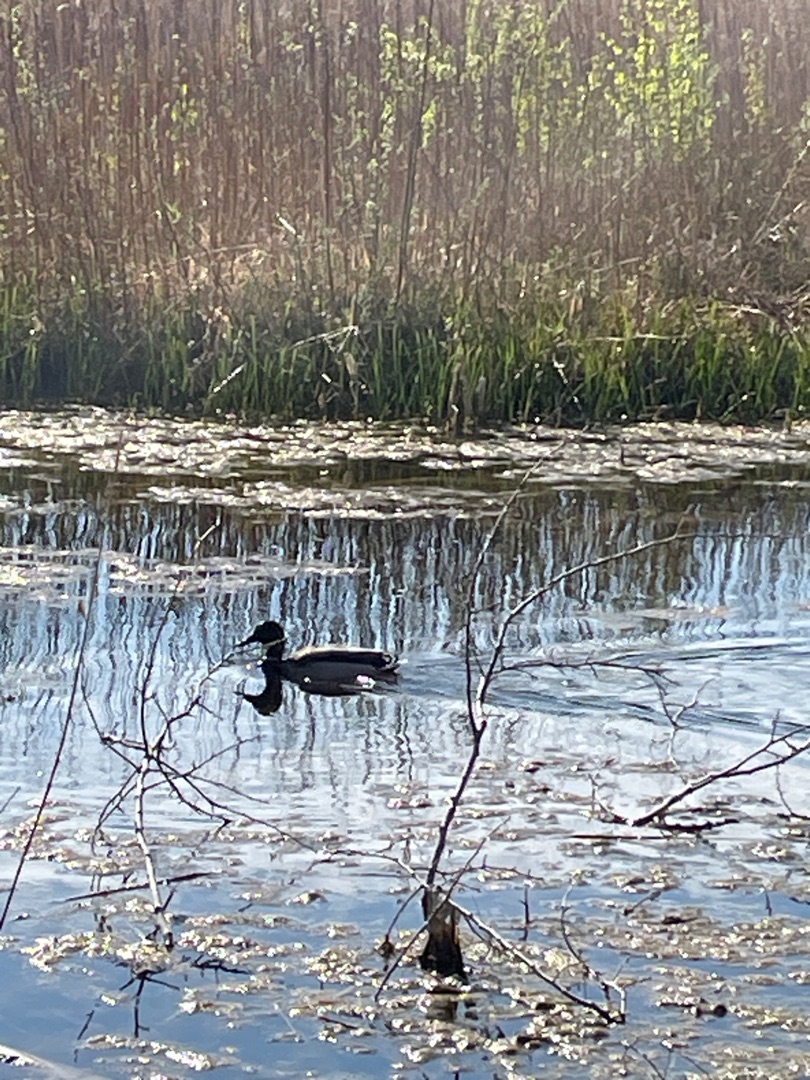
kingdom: Animalia
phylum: Chordata
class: Aves
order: Anseriformes
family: Anatidae
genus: Anas
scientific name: Anas platyrhynchos
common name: Gråand
